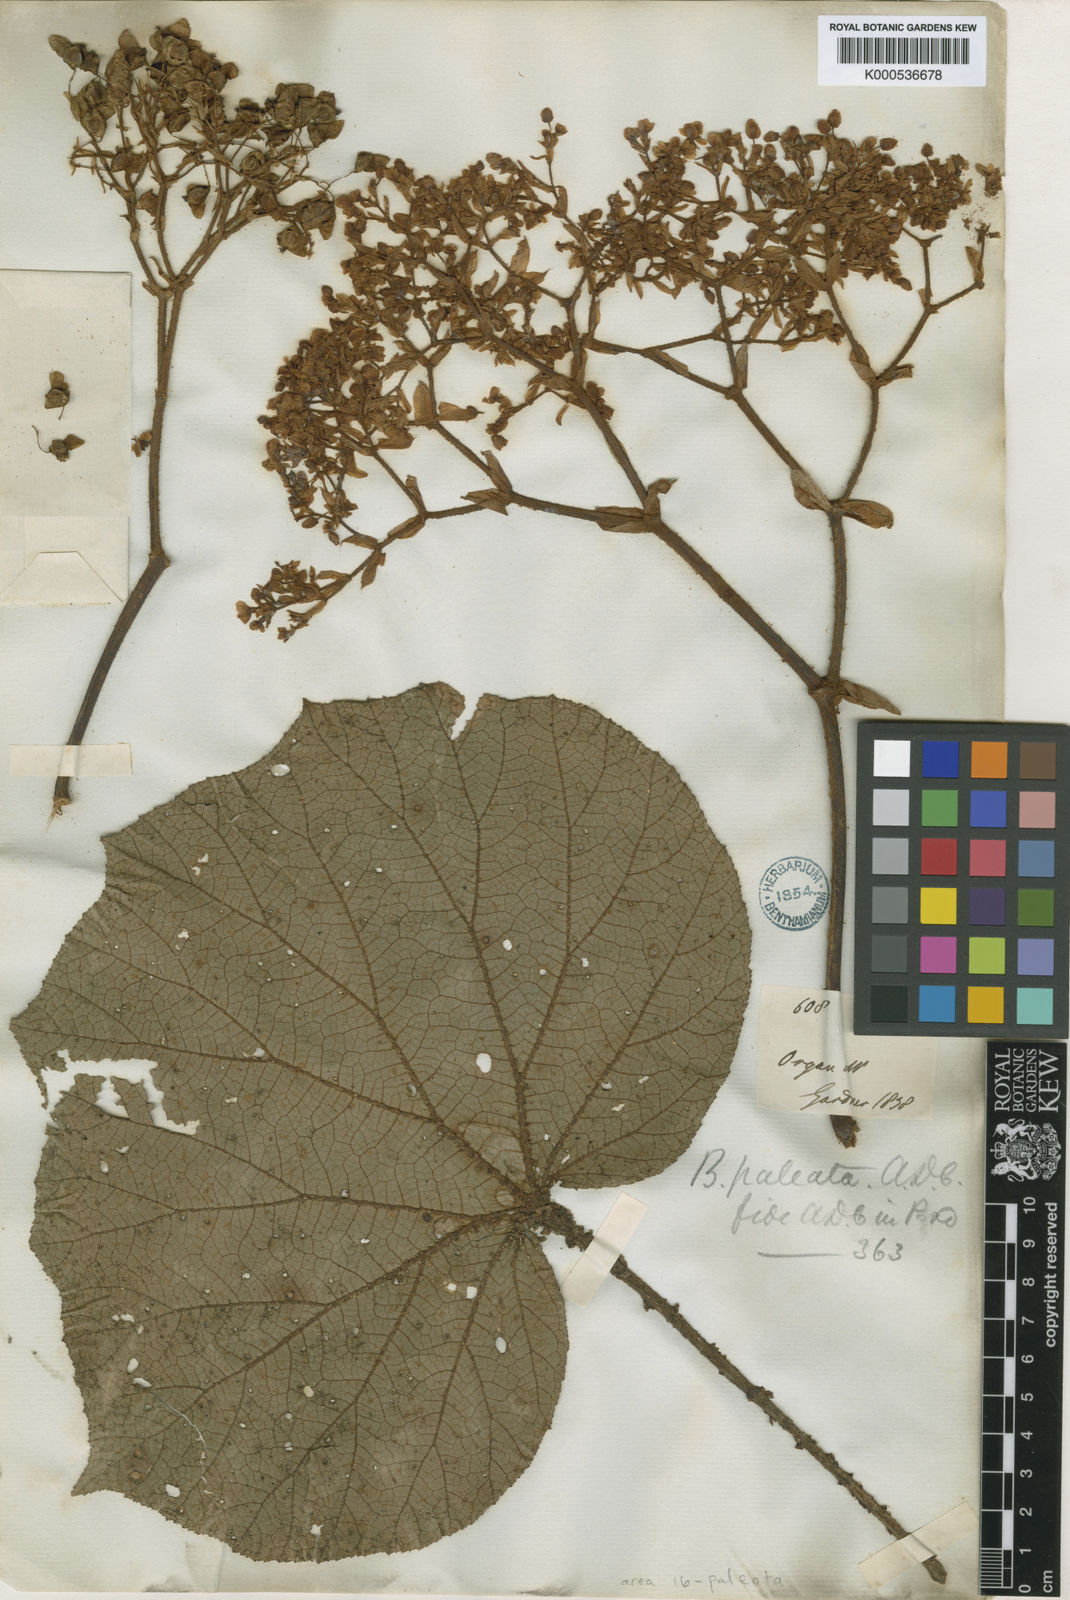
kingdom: Plantae
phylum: Tracheophyta
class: Magnoliopsida
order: Cucurbitales
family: Begoniaceae
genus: Begonia
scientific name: Begonia paleata
